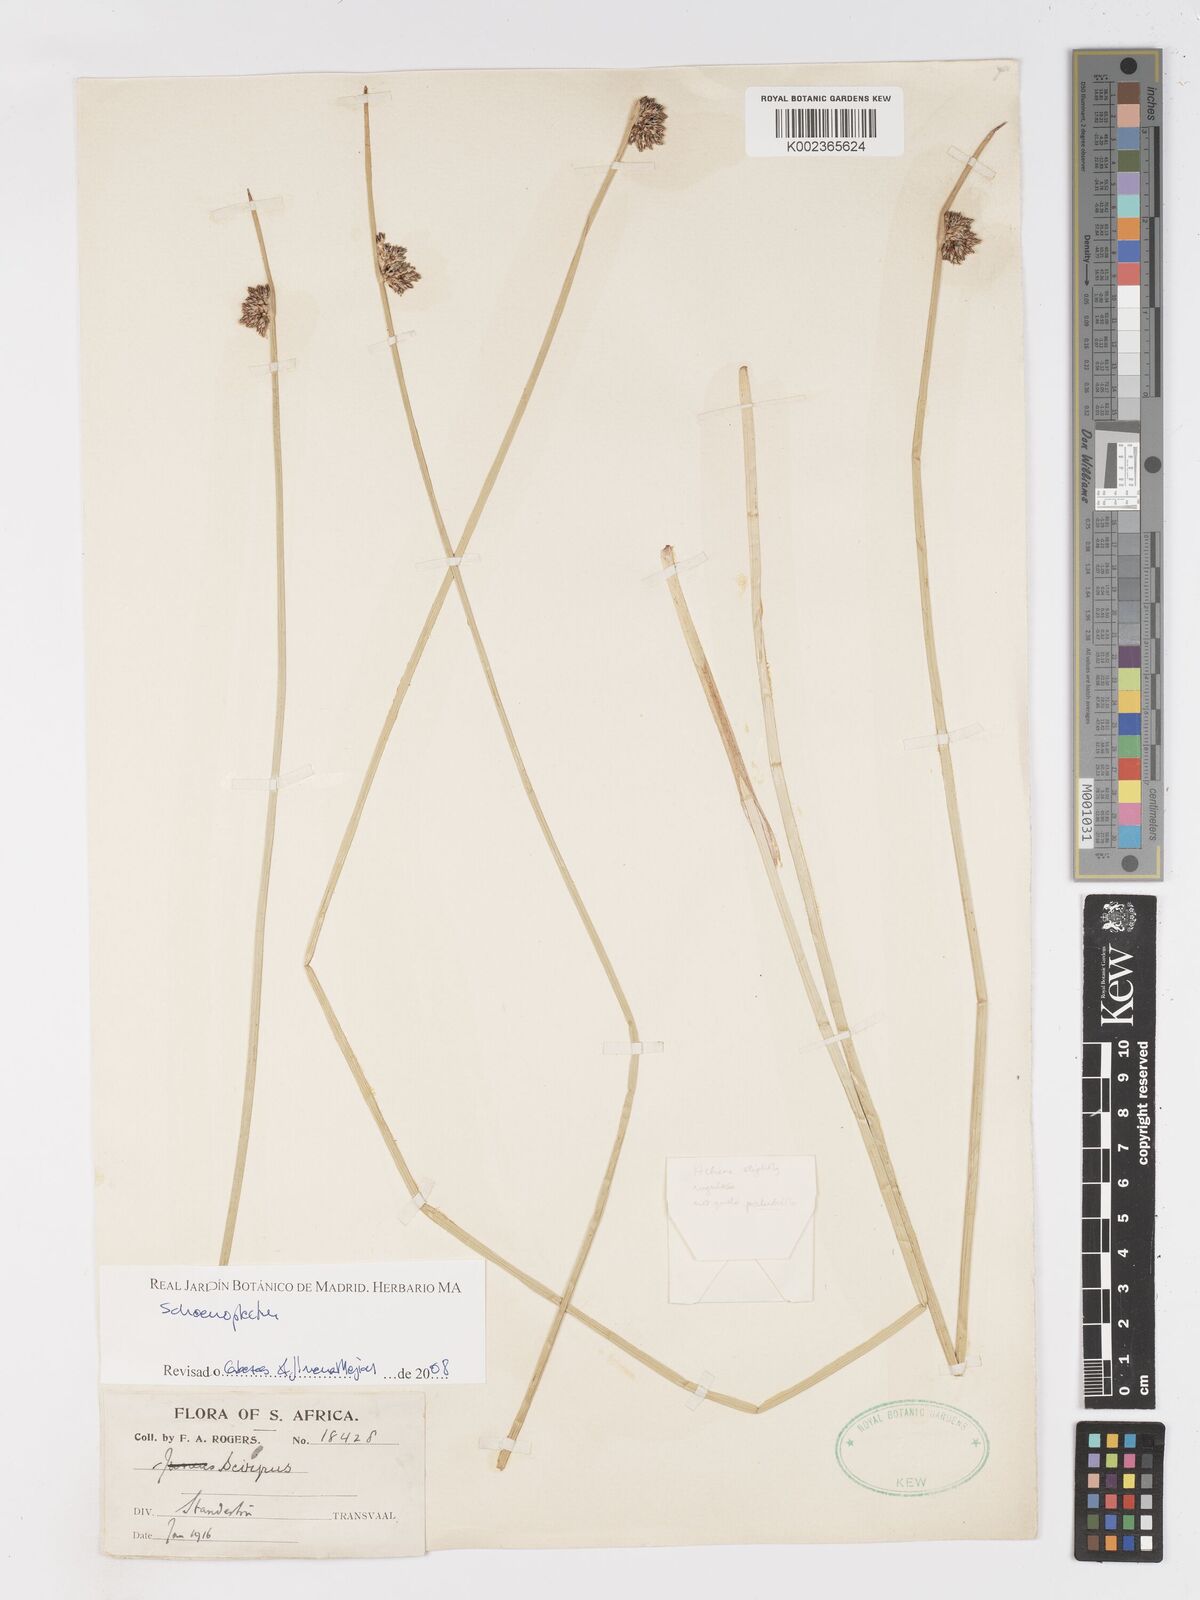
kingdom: Plantae
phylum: Tracheophyta
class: Liliopsida
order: Poales
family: Cyperaceae
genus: Schoenoplectus
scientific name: Schoenoplectus
